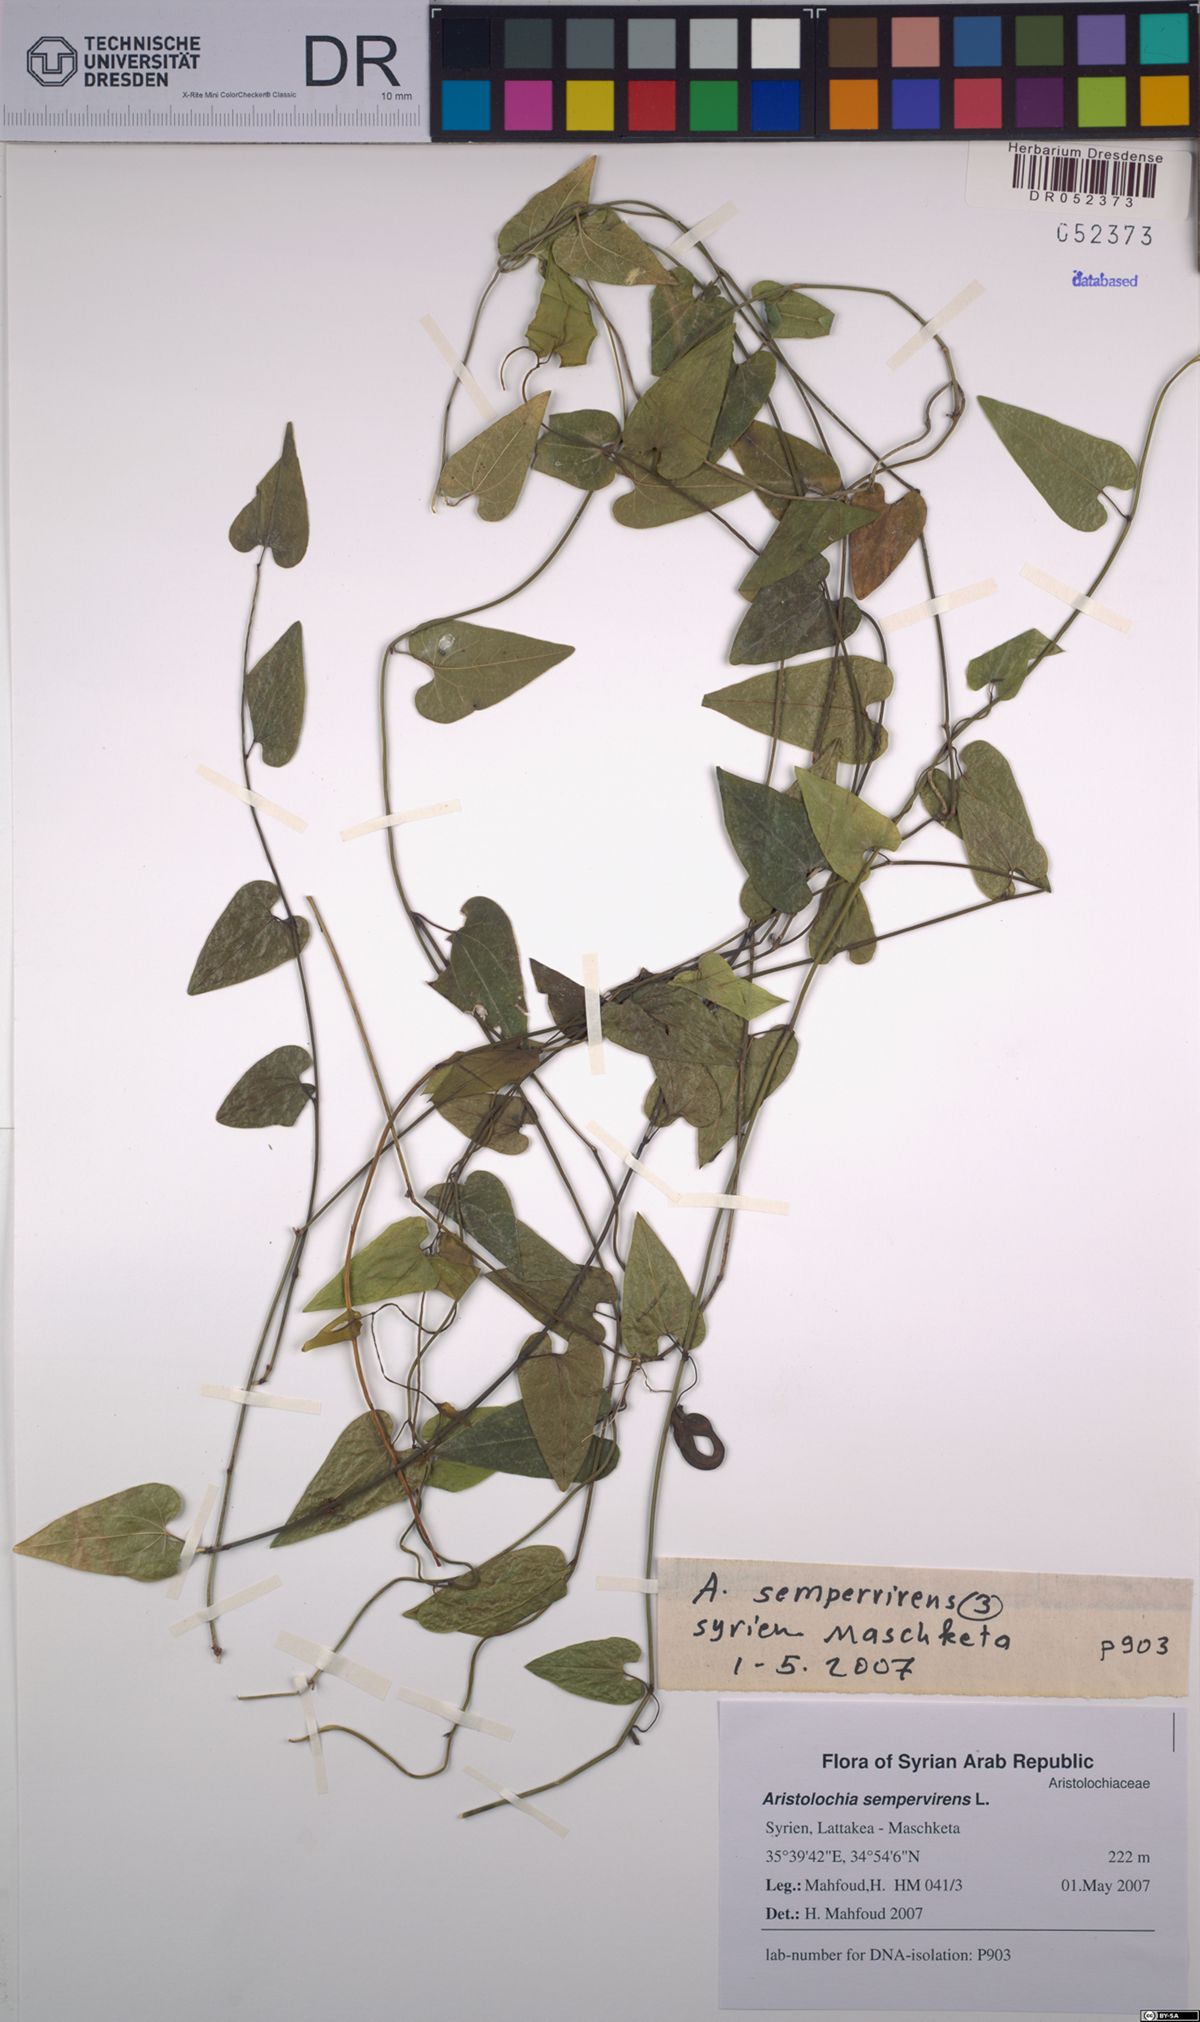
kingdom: Plantae
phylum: Tracheophyta
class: Magnoliopsida
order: Piperales
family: Aristolochiaceae
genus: Aristolochia
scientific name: Aristolochia sempervirens
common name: Long birthwort
